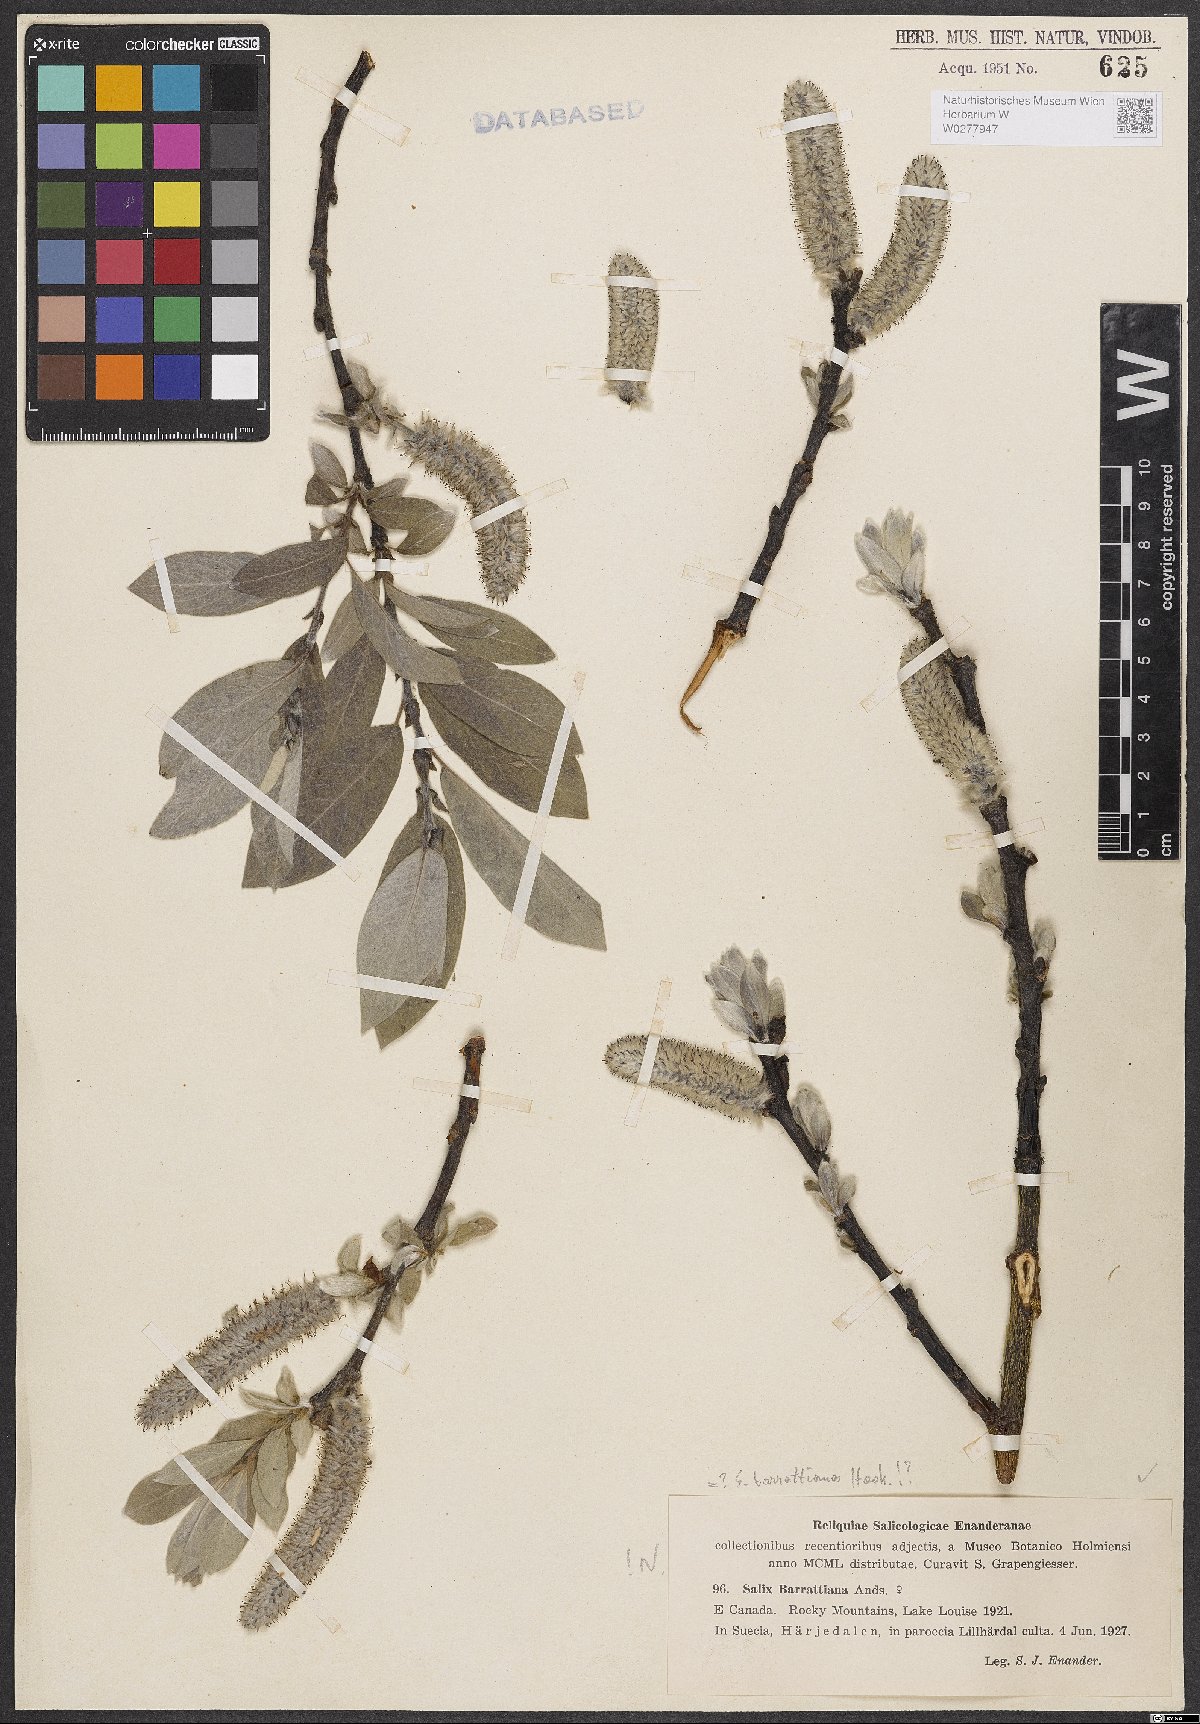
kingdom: Plantae
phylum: Tracheophyta
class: Magnoliopsida
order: Malpighiales
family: Salicaceae
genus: Salix
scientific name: Salix barrattiana
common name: Barratt's willow
